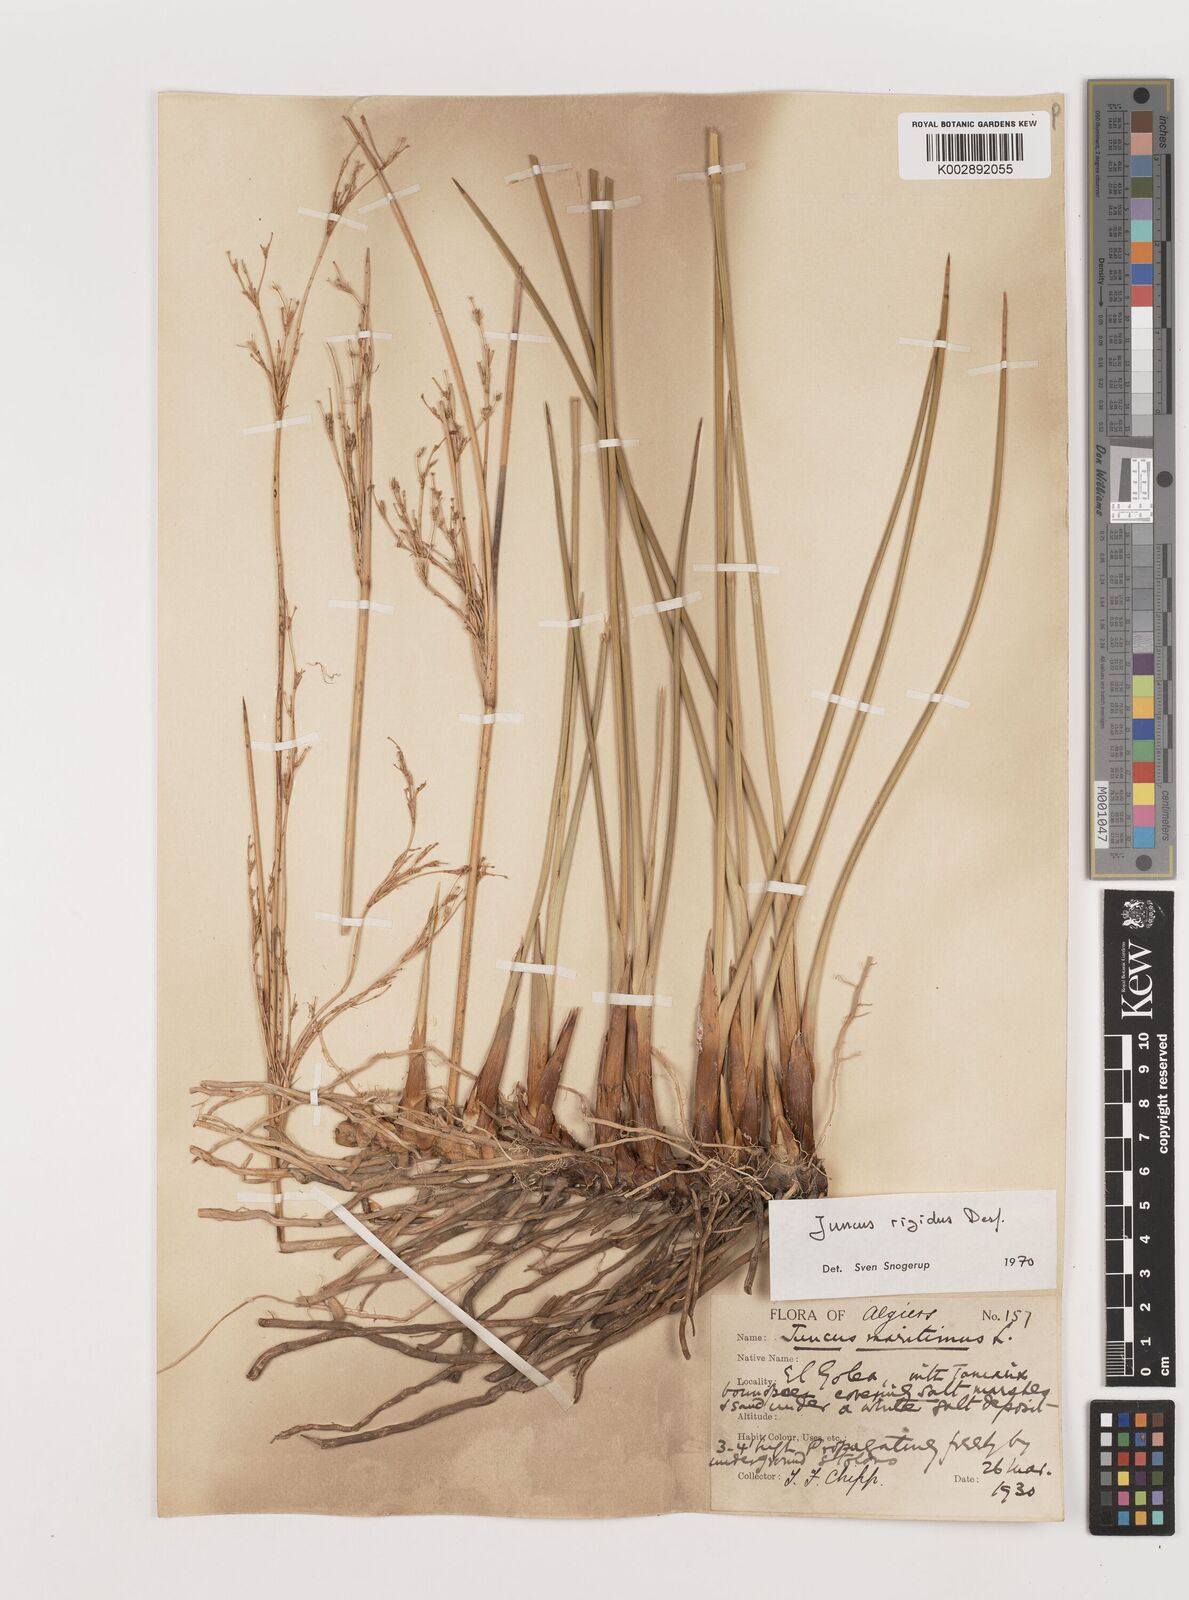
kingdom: Plantae
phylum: Tracheophyta
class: Liliopsida
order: Poales
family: Juncaceae
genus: Juncus
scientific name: Juncus rigidus
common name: Hard sea rush
